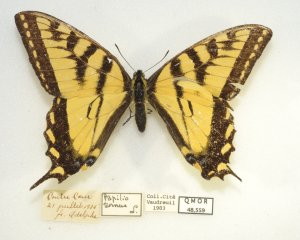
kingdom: Animalia
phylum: Arthropoda
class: Insecta
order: Lepidoptera
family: Papilionidae
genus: Pterourus
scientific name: Pterourus glaucus
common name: Eastern Tiger Swallowtail
